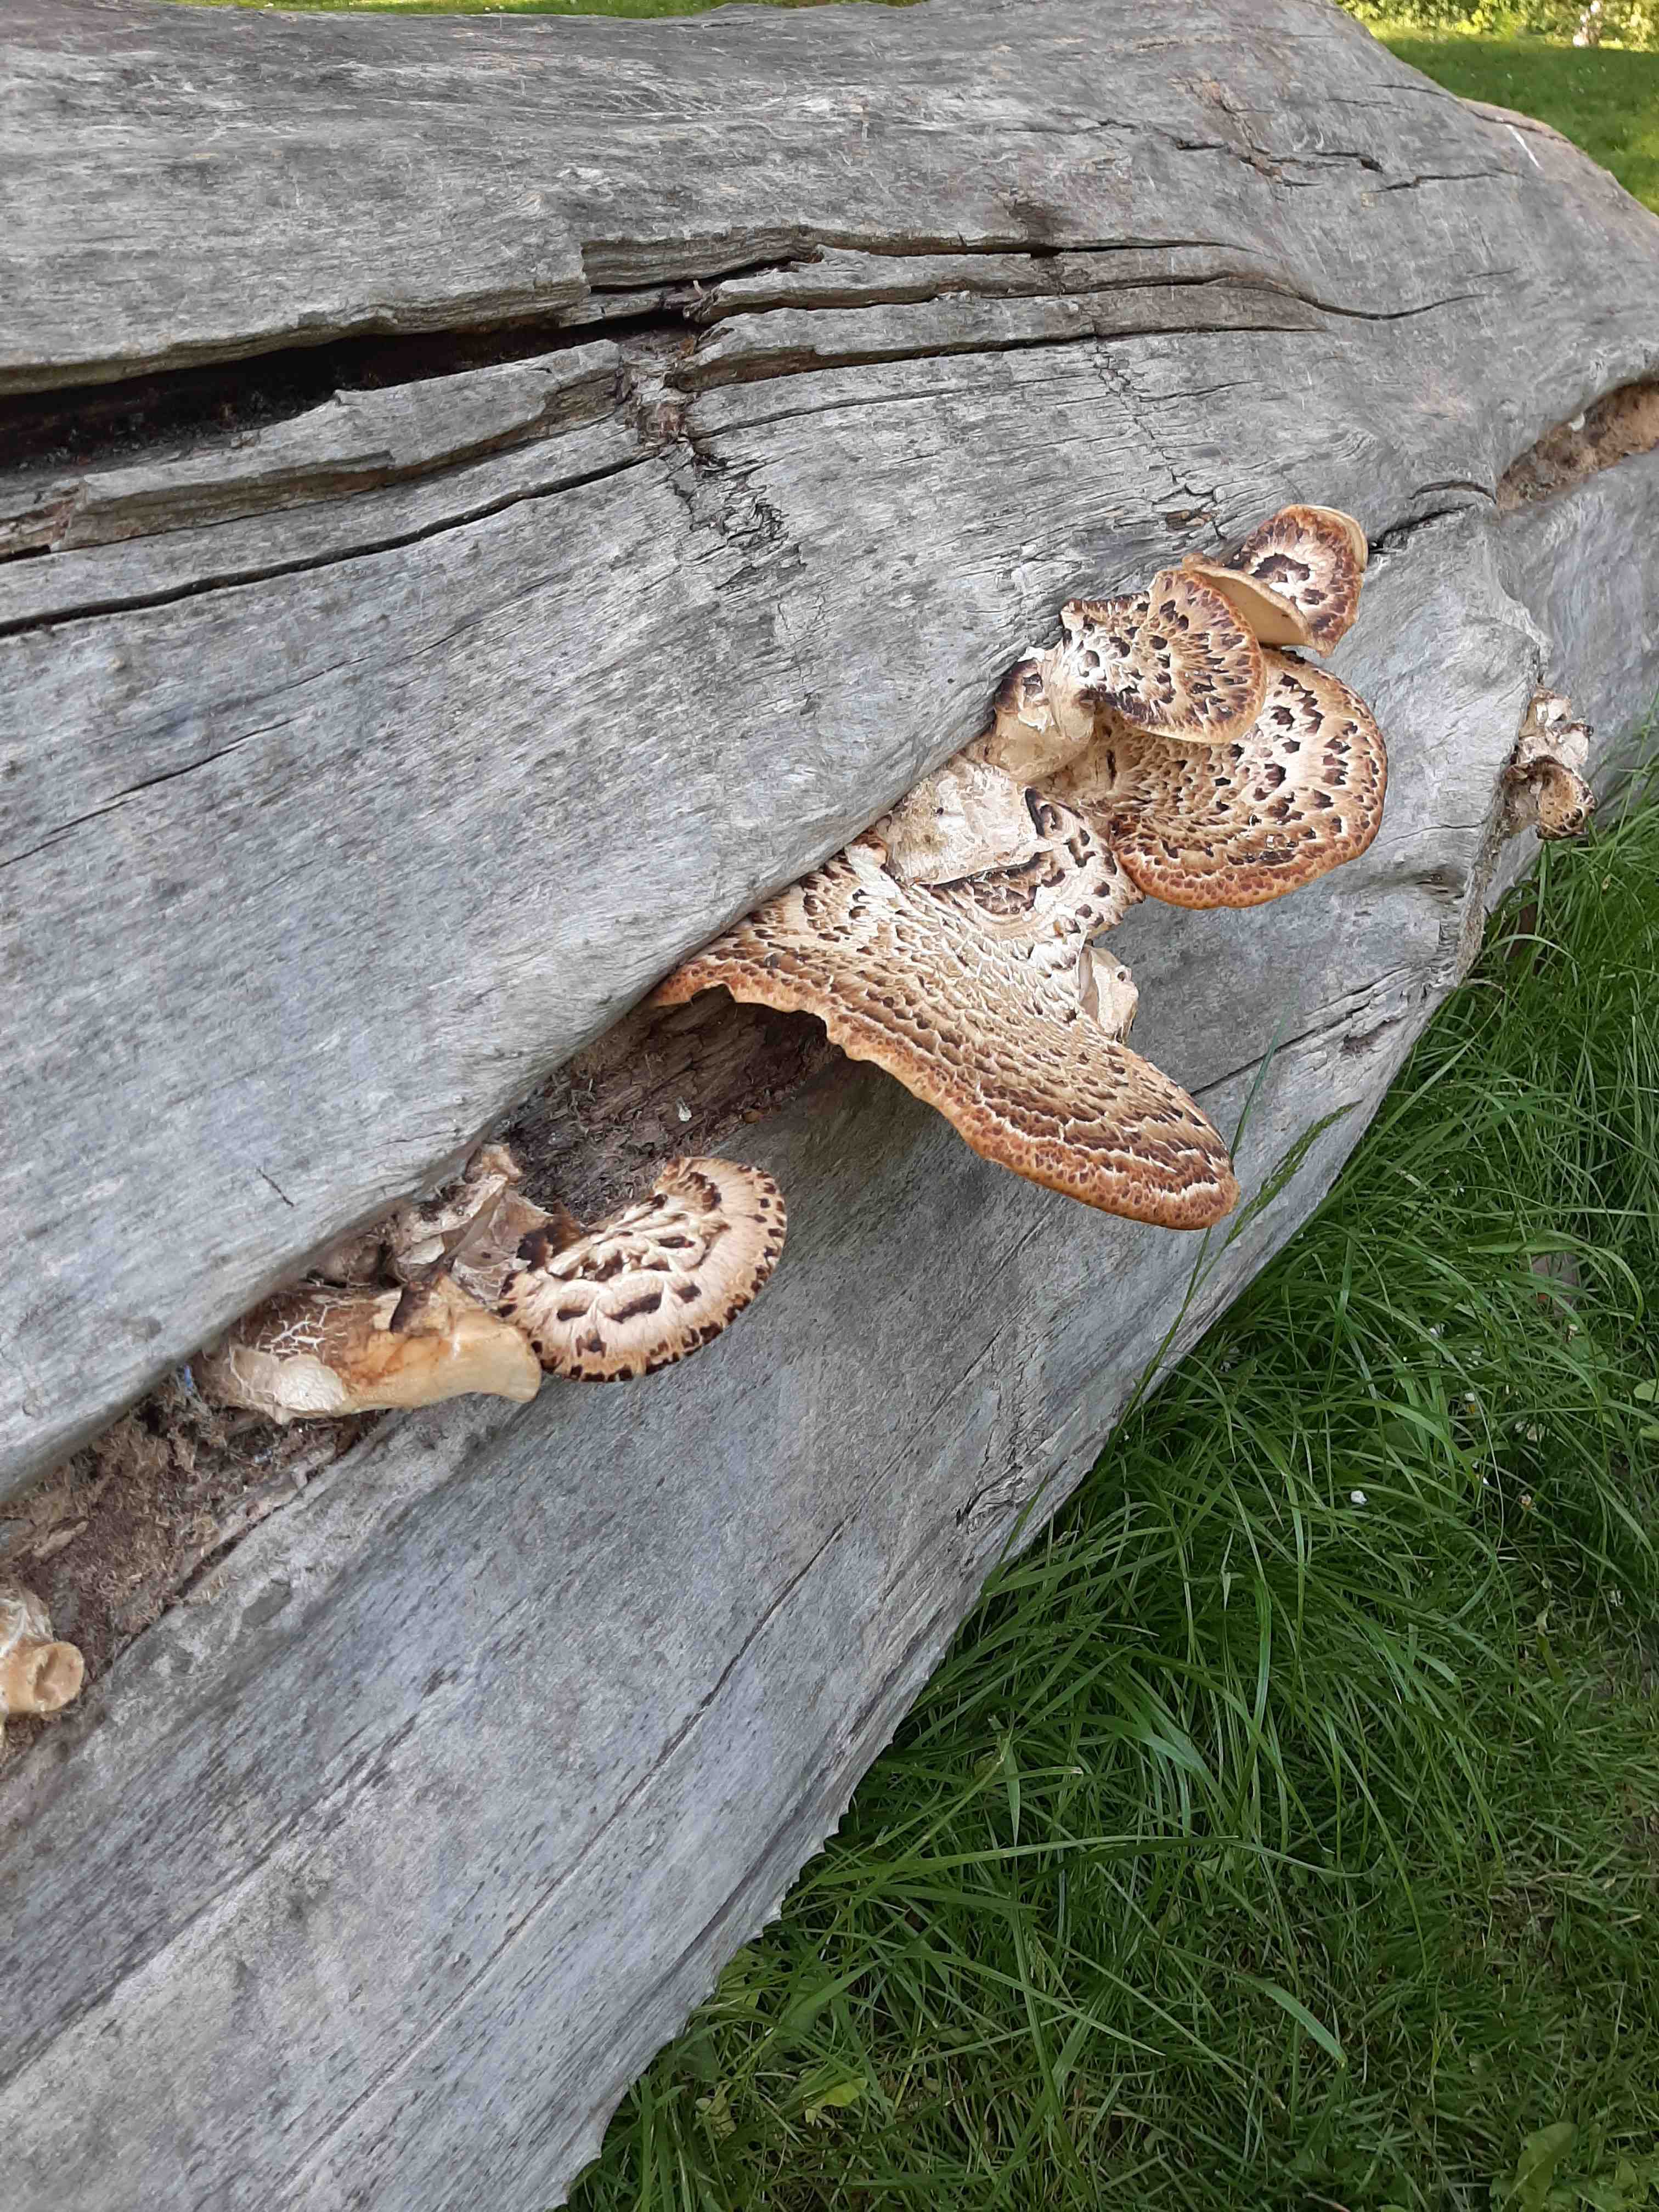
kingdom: Fungi
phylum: Basidiomycota
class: Agaricomycetes
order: Polyporales
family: Polyporaceae
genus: Cerioporus
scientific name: Cerioporus squamosus
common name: skællet stilkporesvamp
